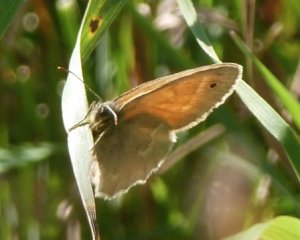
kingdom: Animalia
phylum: Arthropoda
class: Insecta
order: Lepidoptera
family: Nymphalidae
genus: Coenonympha
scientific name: Coenonympha tullia
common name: Large Heath
